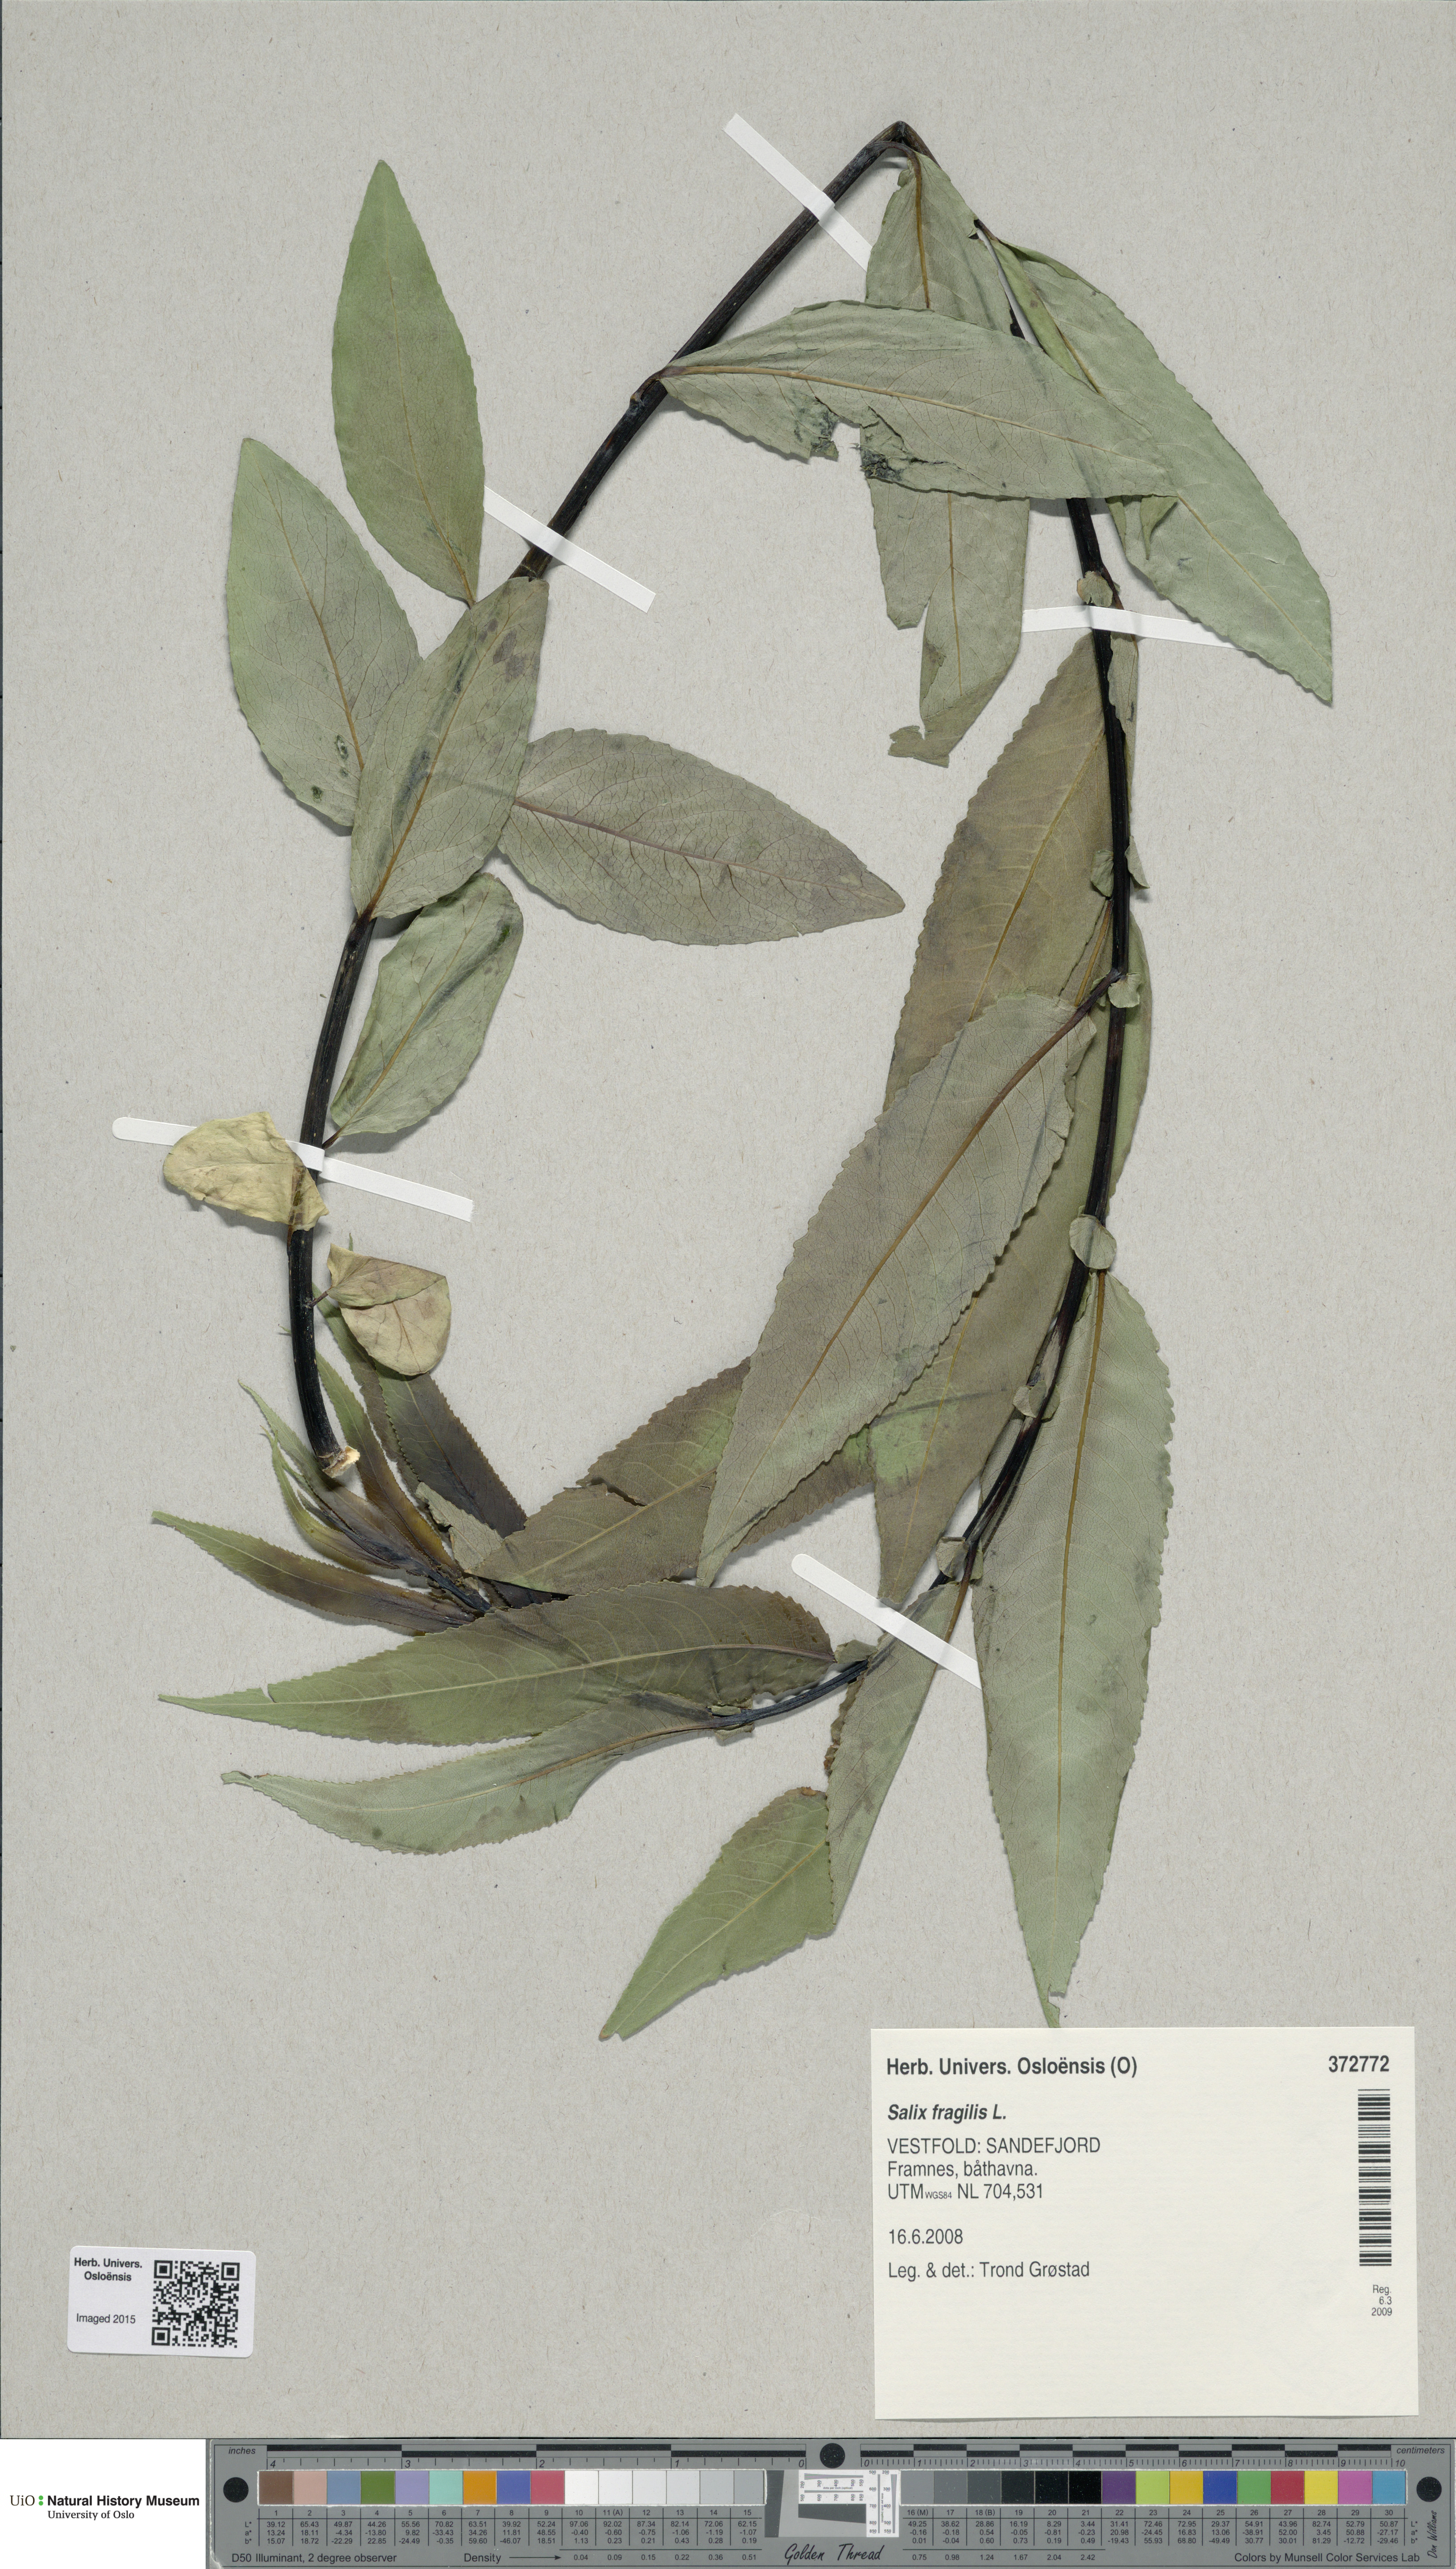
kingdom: Plantae
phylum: Tracheophyta
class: Magnoliopsida
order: Malpighiales
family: Salicaceae
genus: Salix
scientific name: Salix alba
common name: White willow
